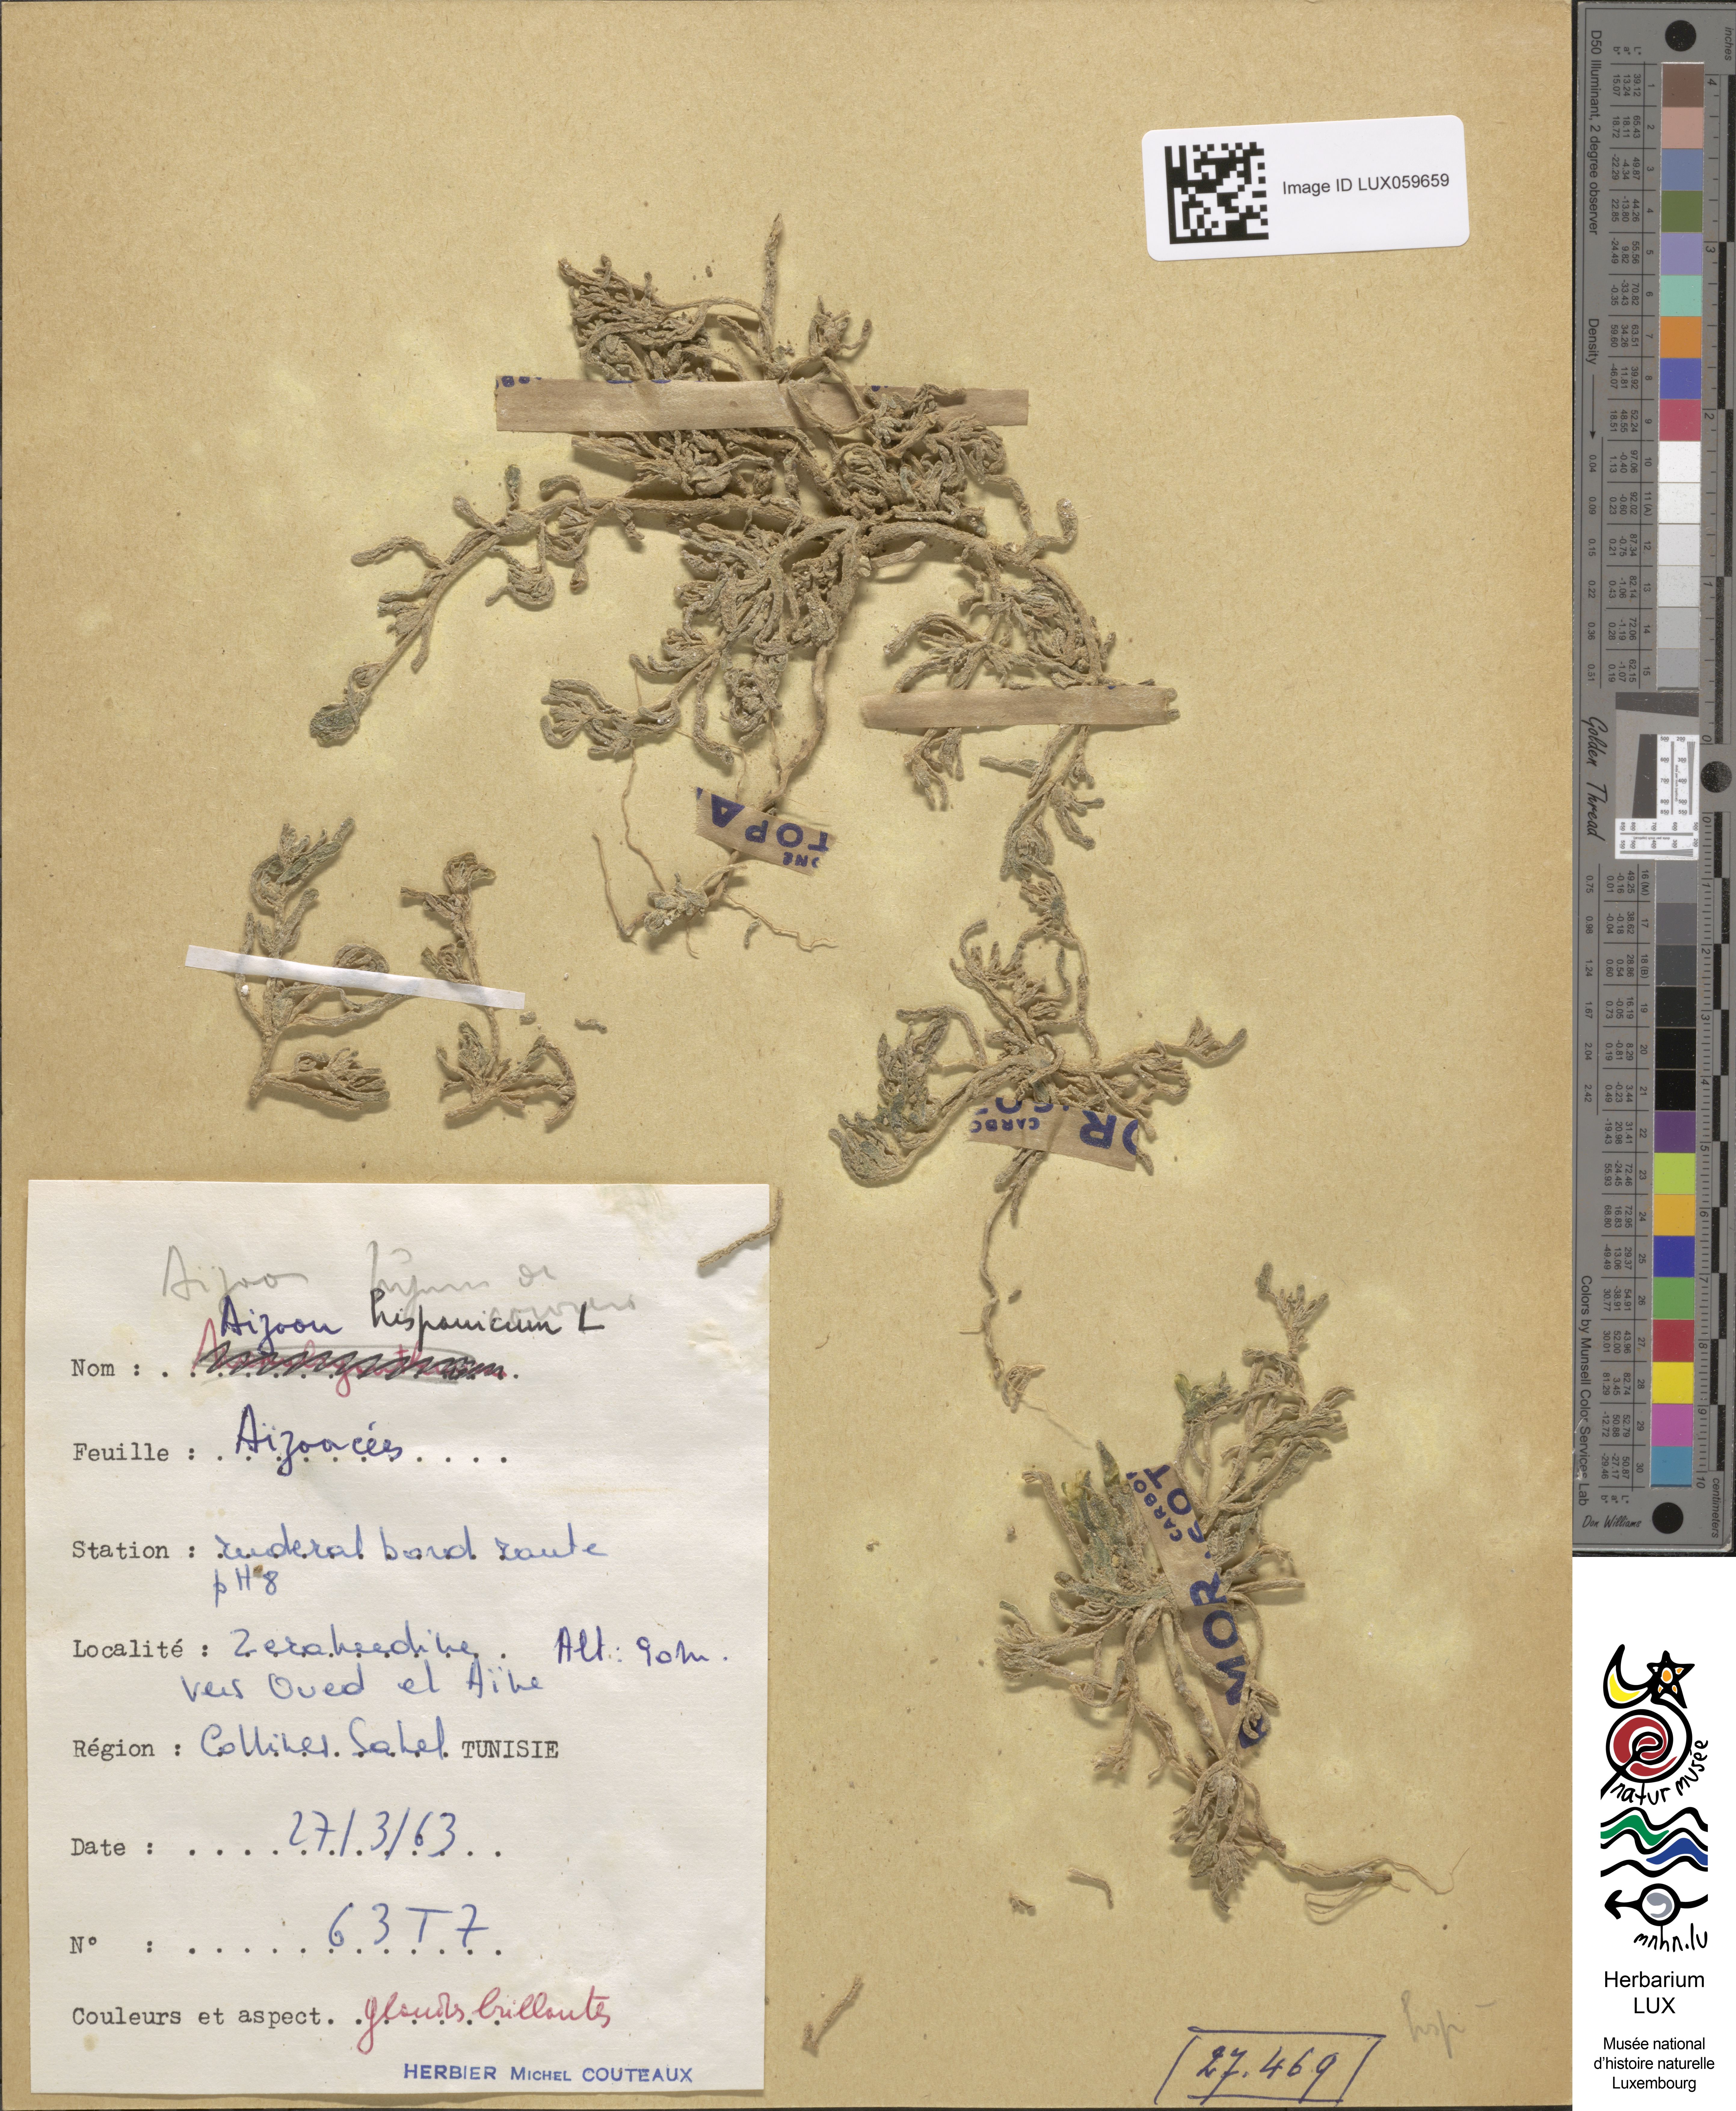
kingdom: Plantae
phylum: Tracheophyta
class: Magnoliopsida
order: Caryophyllales
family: Aizoaceae
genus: Aizoanthemopsis
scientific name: Aizoanthemopsis hispanica
